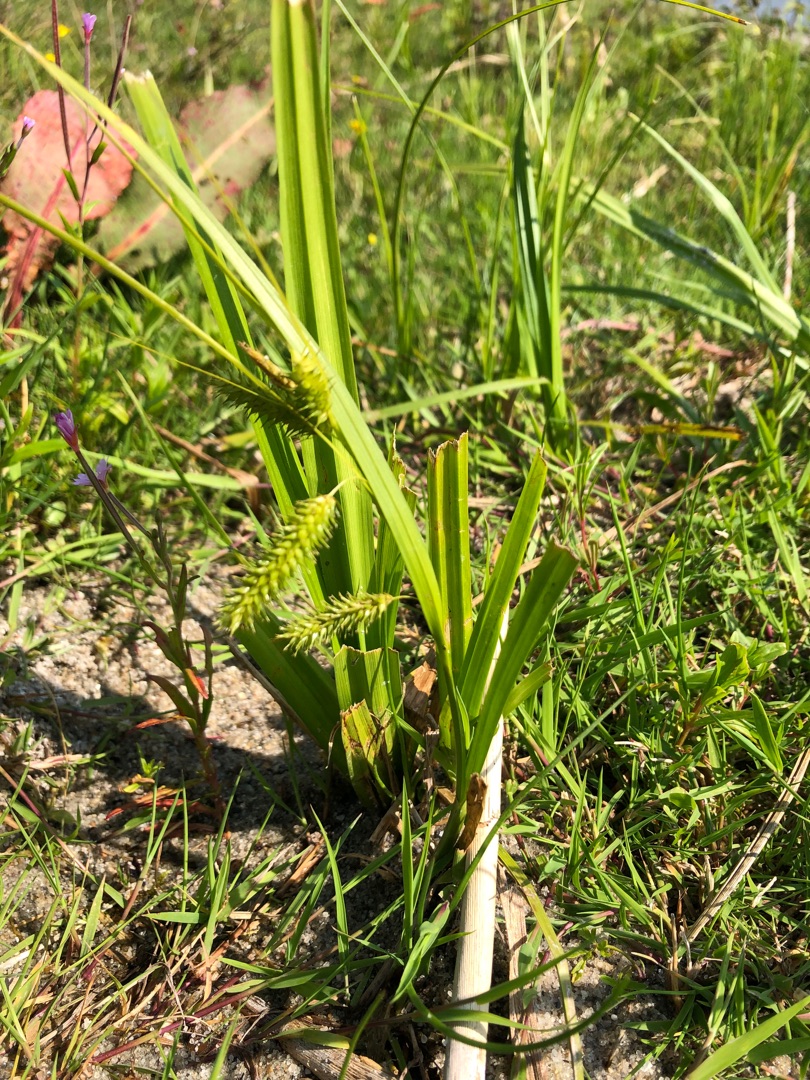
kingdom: Plantae
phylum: Tracheophyta
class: Liliopsida
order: Poales
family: Cyperaceae
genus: Carex
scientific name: Carex pseudocyperus
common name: Knippe-star
